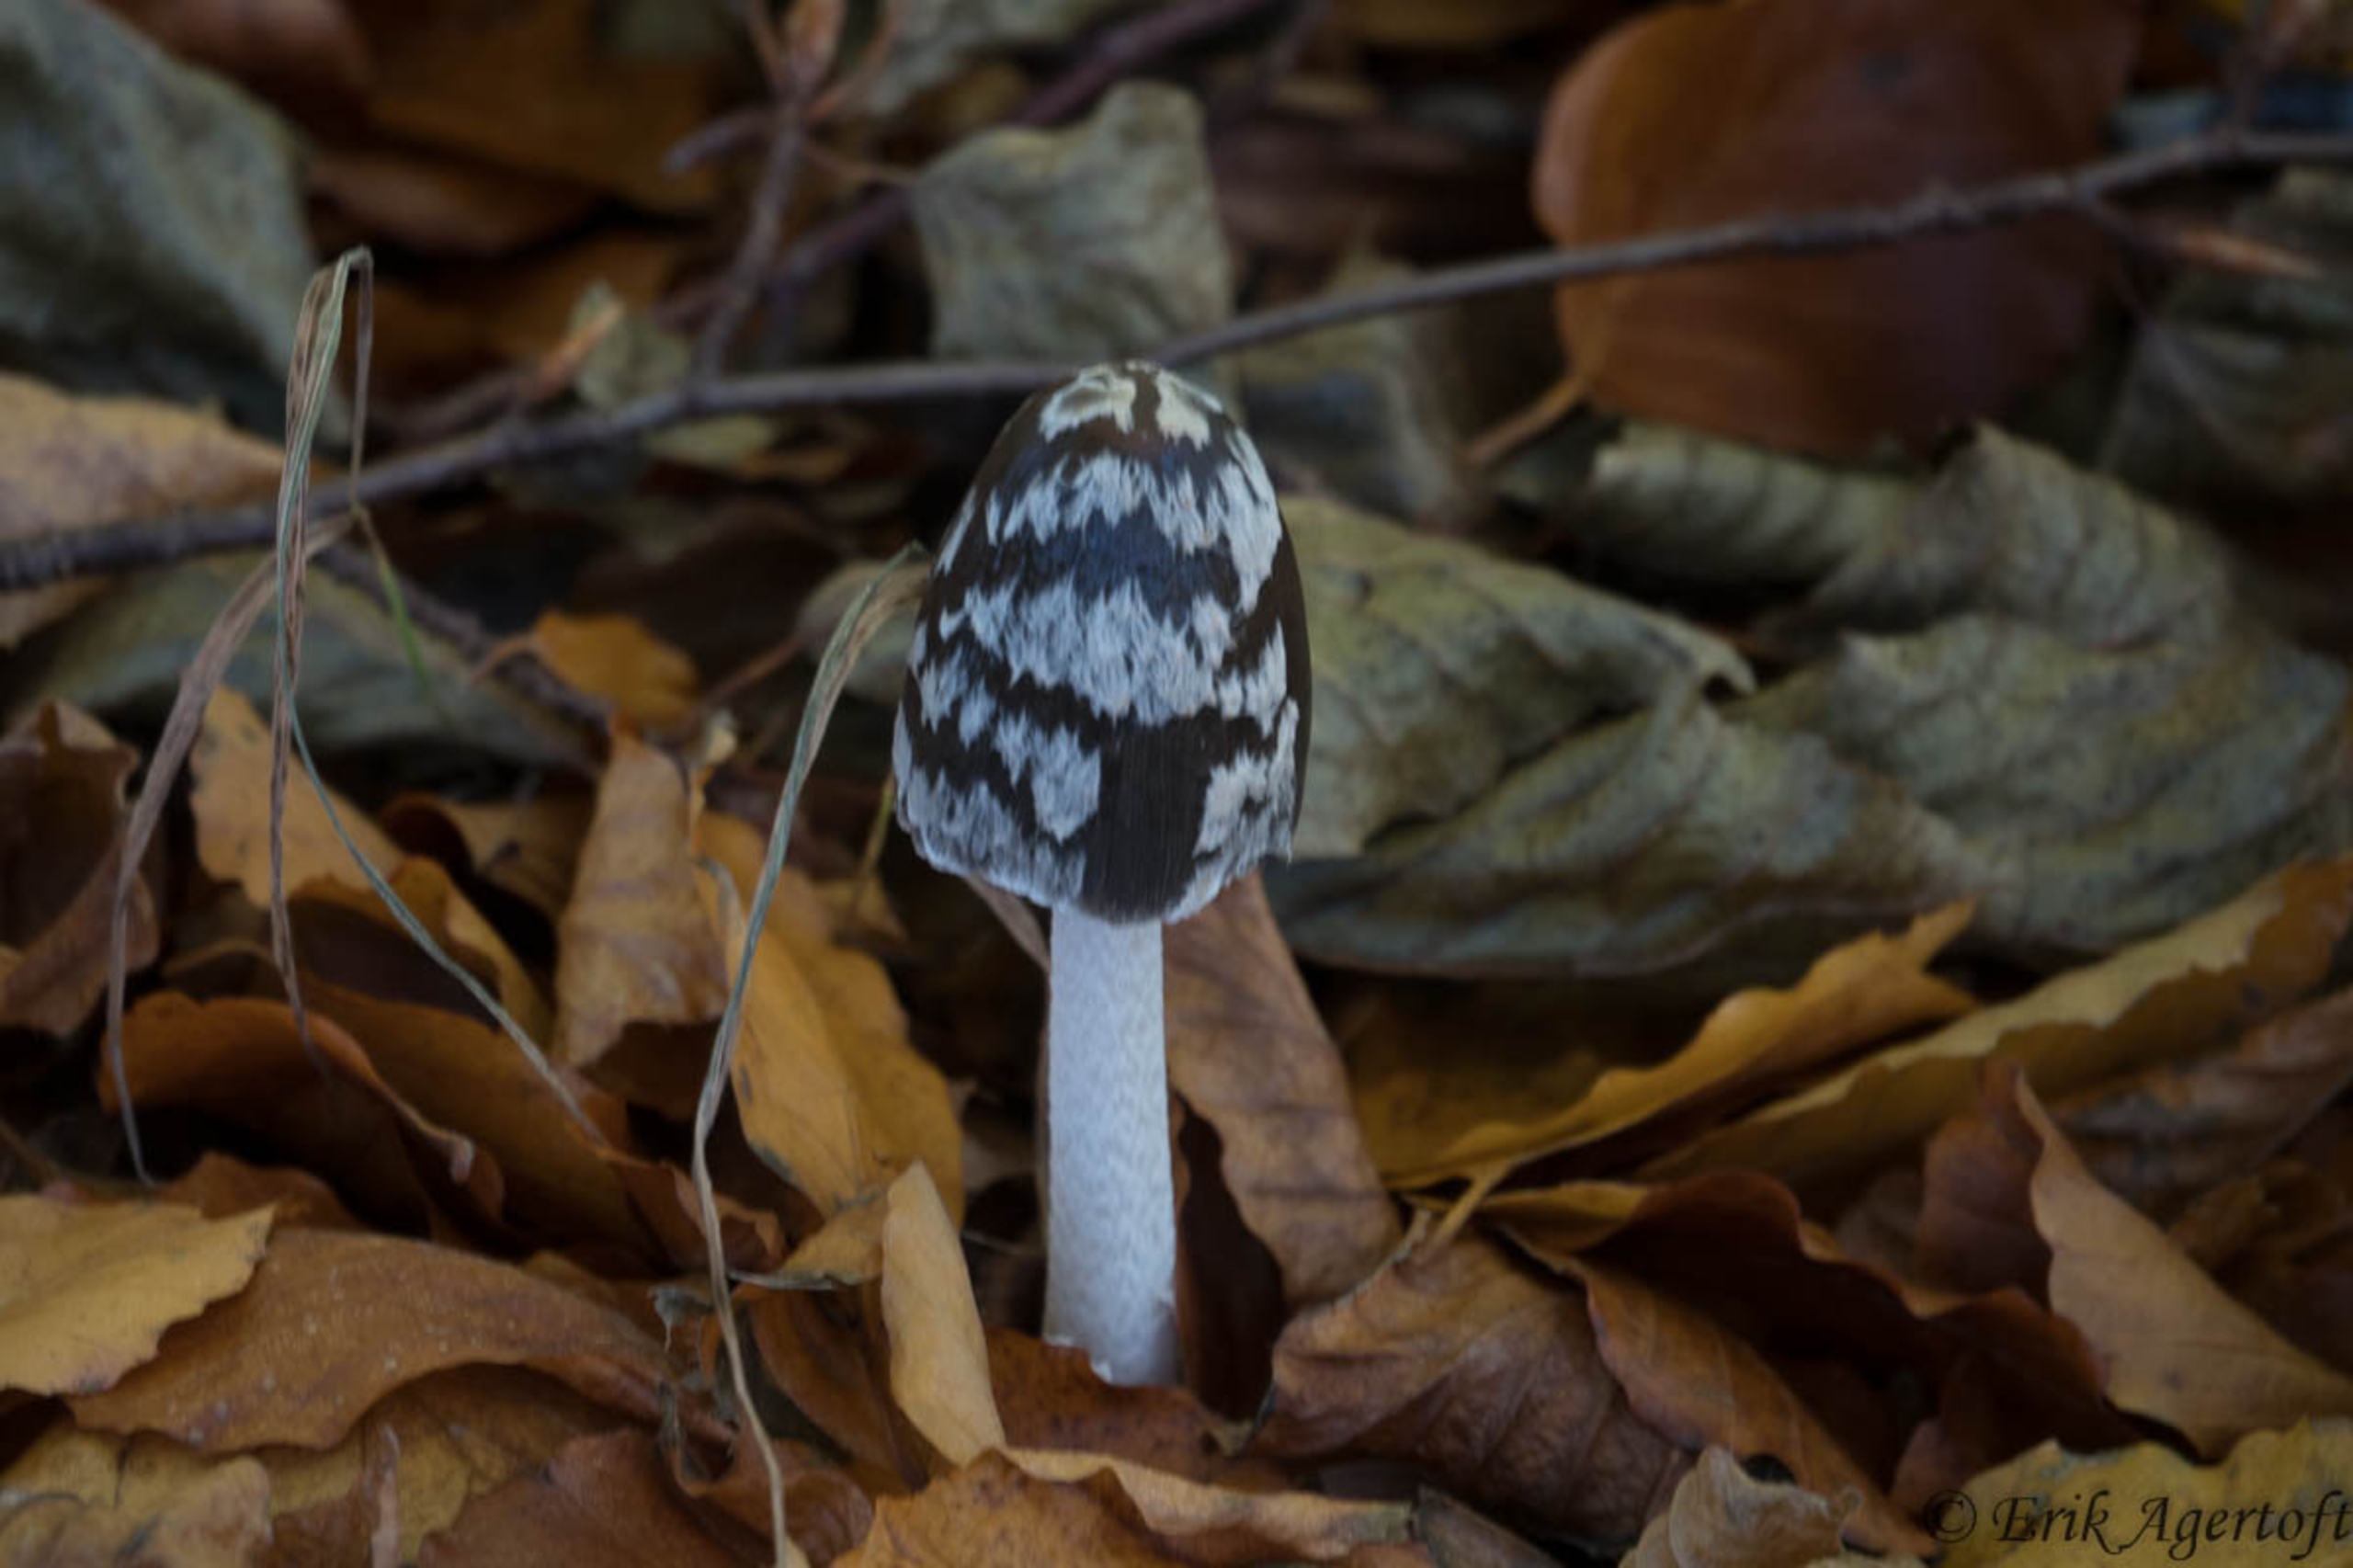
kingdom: Fungi
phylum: Basidiomycota
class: Agaricomycetes
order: Agaricales
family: Psathyrellaceae
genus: Coprinopsis
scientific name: Coprinopsis picacea
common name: Skade-blækhat
